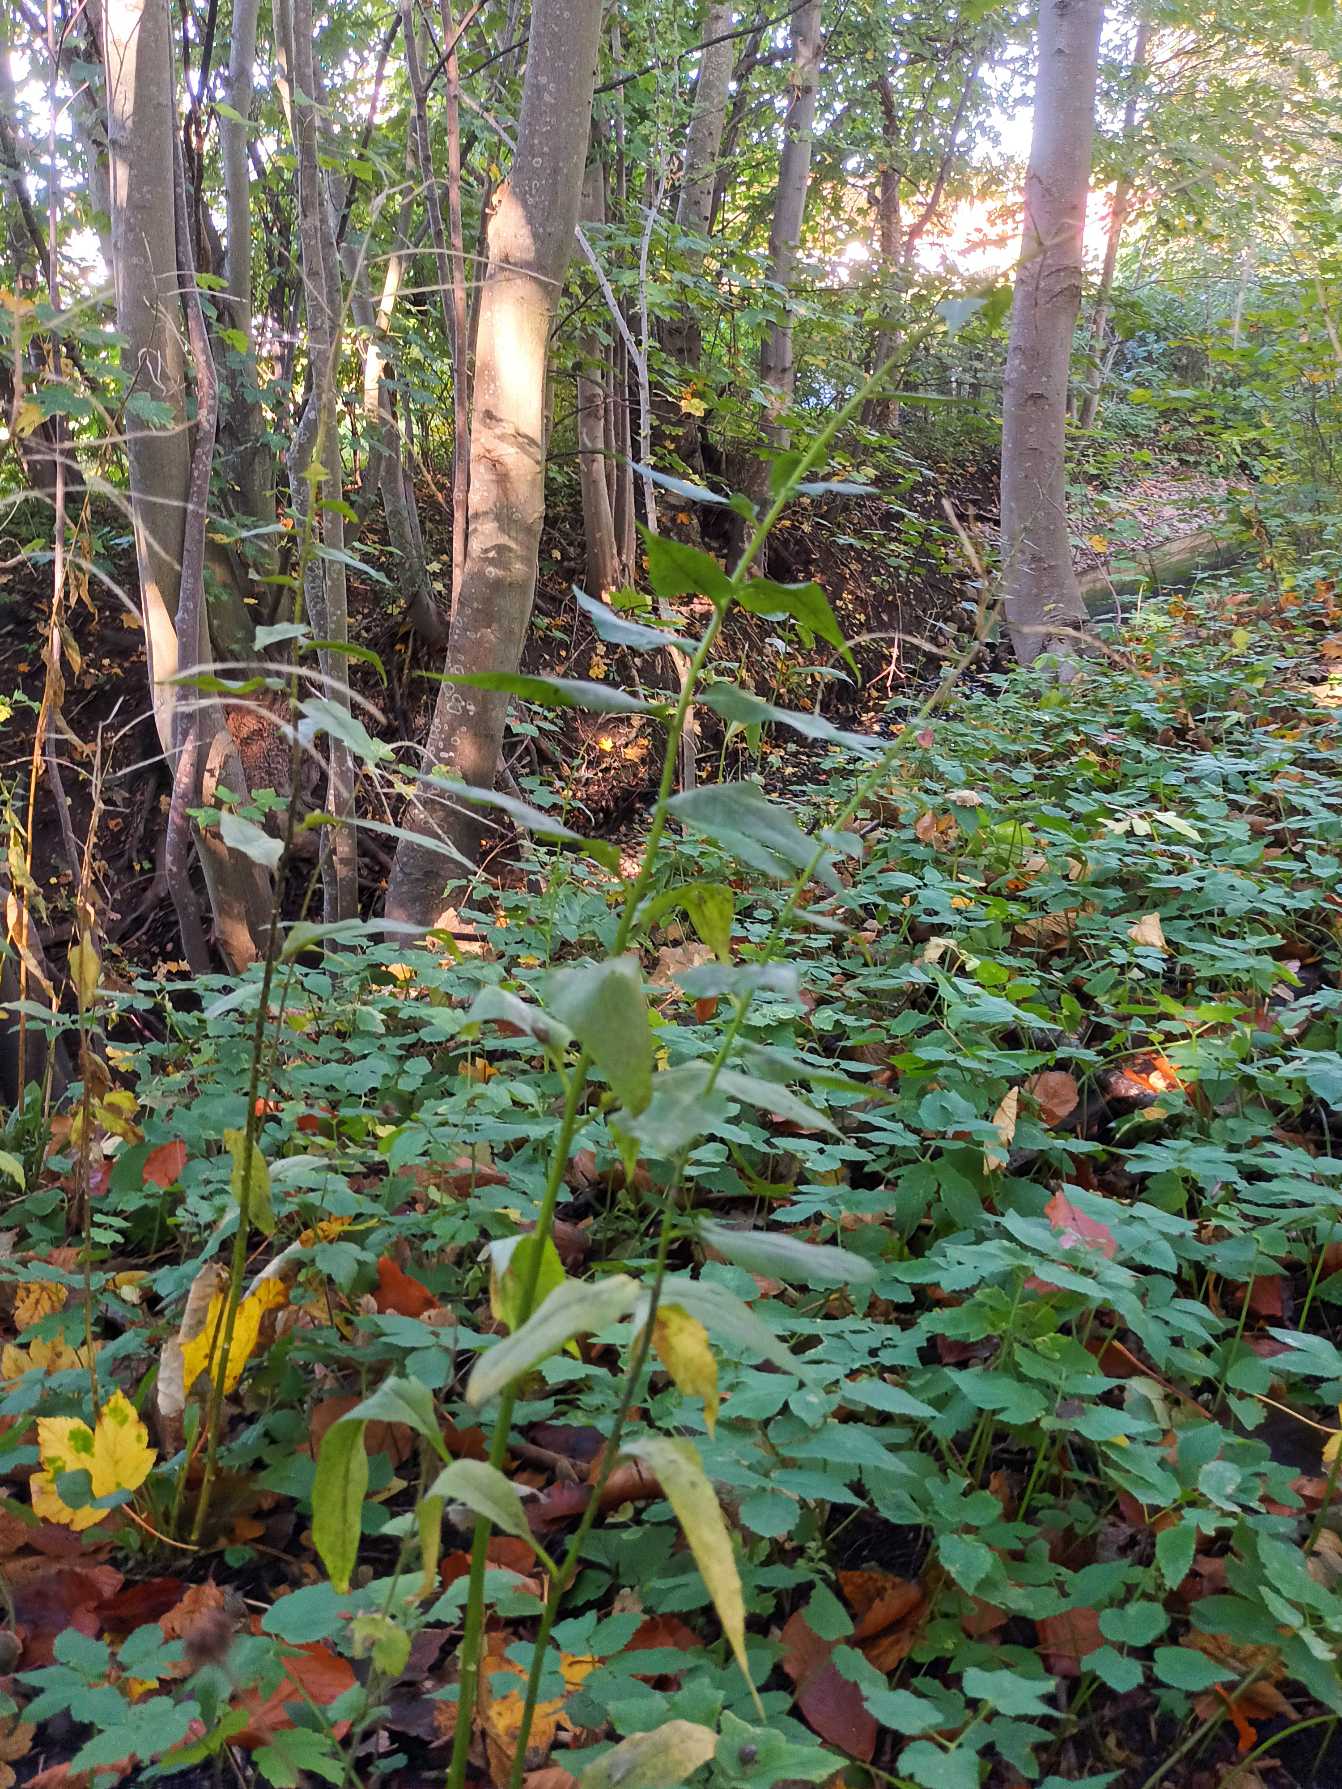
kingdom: Plantae
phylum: Tracheophyta
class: Magnoliopsida
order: Brassicales
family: Brassicaceae
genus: Hesperis
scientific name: Hesperis matronalis
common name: Aftenstjerne
